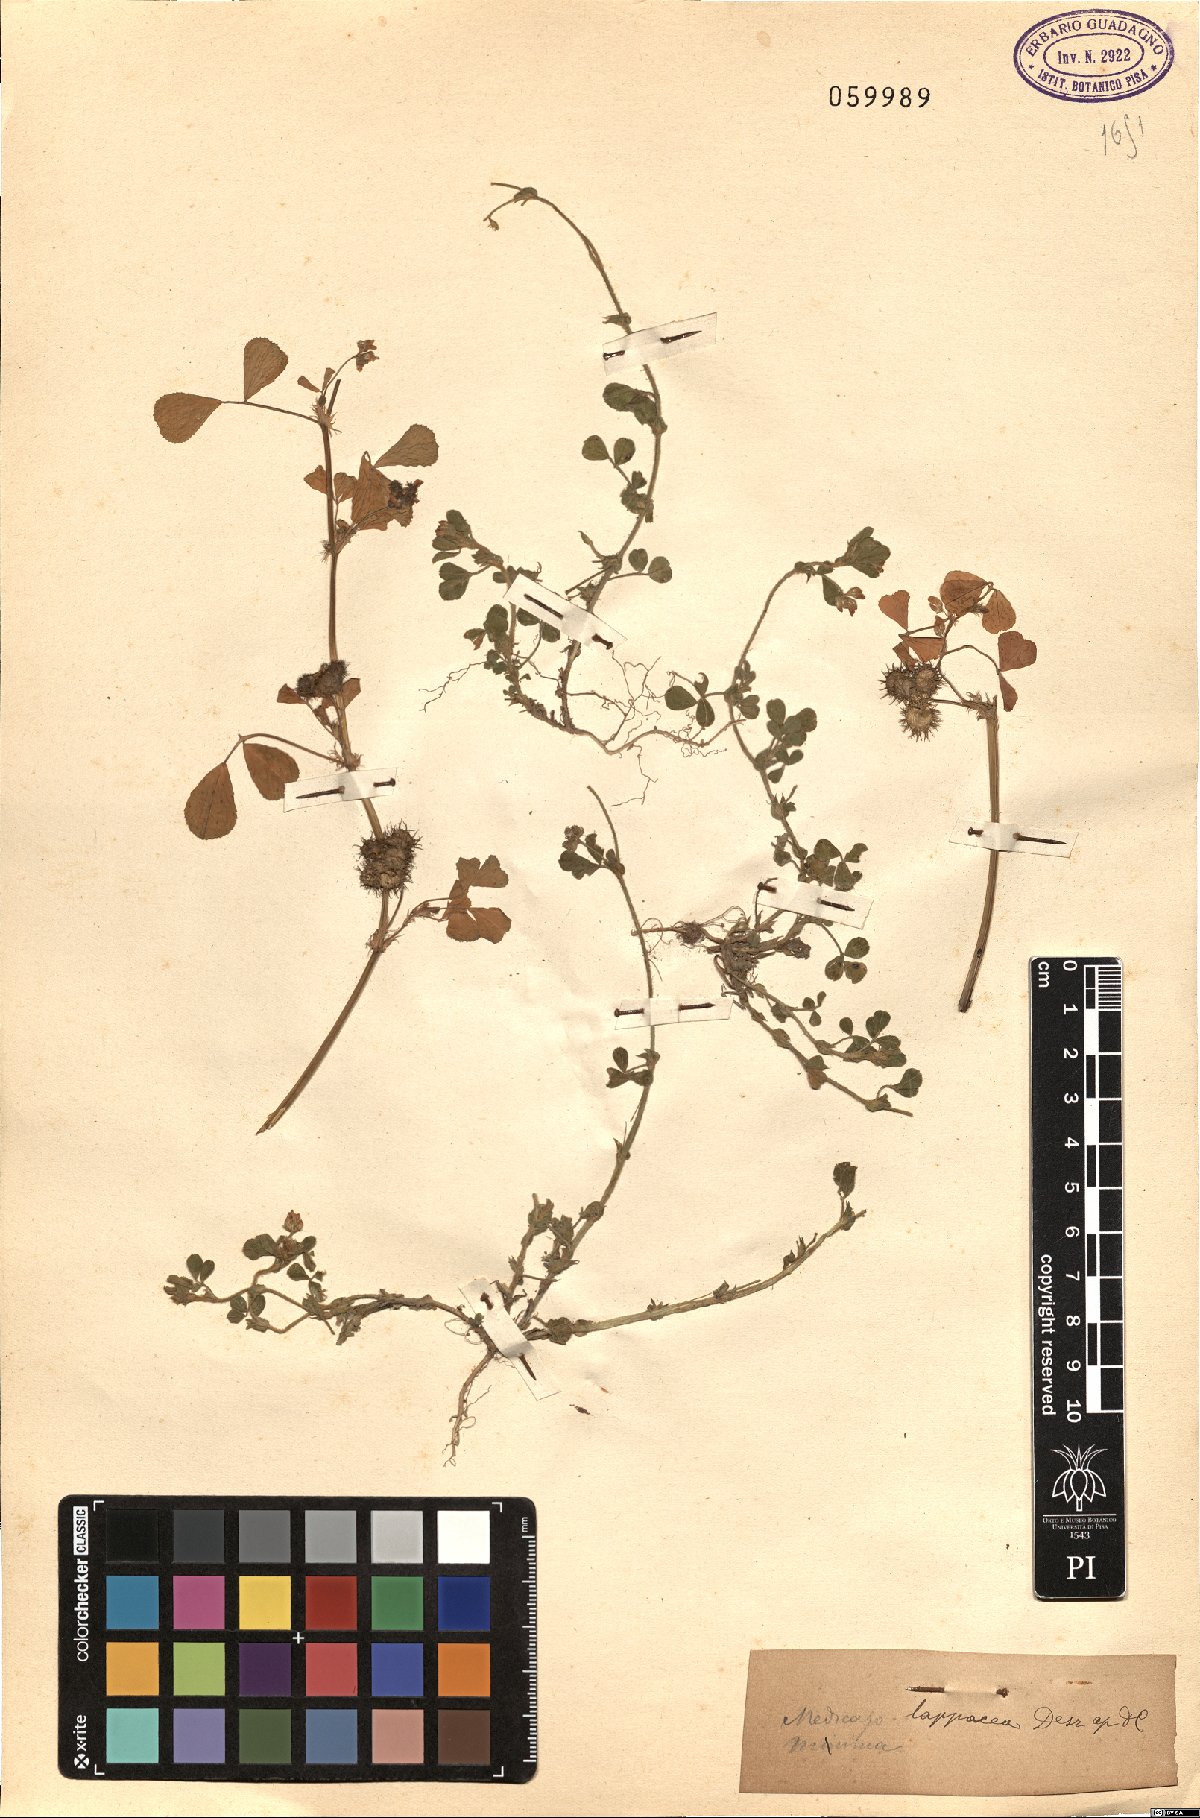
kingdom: Plantae
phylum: Tracheophyta
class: Magnoliopsida
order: Fabales
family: Fabaceae
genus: Medicago
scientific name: Medicago polymorpha
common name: Burclover
